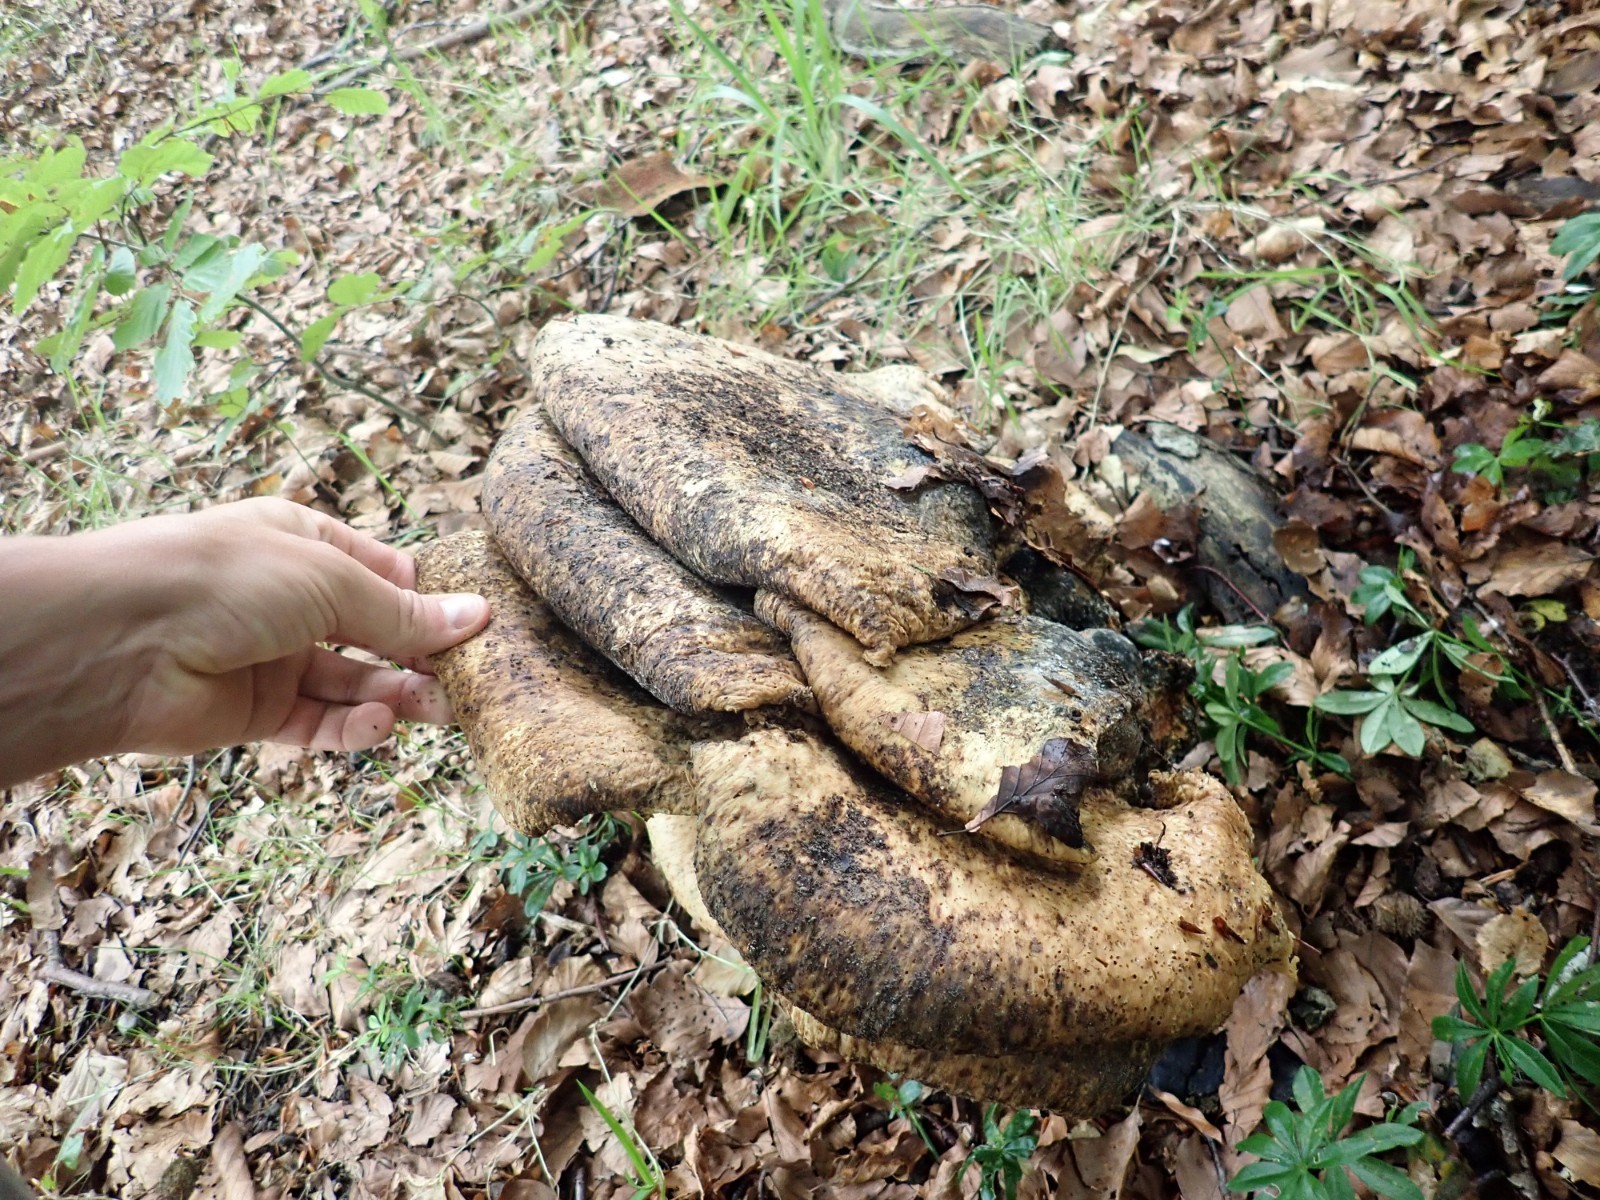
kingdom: Fungi
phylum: Basidiomycota
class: Agaricomycetes
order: Polyporales
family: Polyporaceae
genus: Cerioporus
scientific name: Cerioporus squamosus
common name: skællet stilkporesvamp
